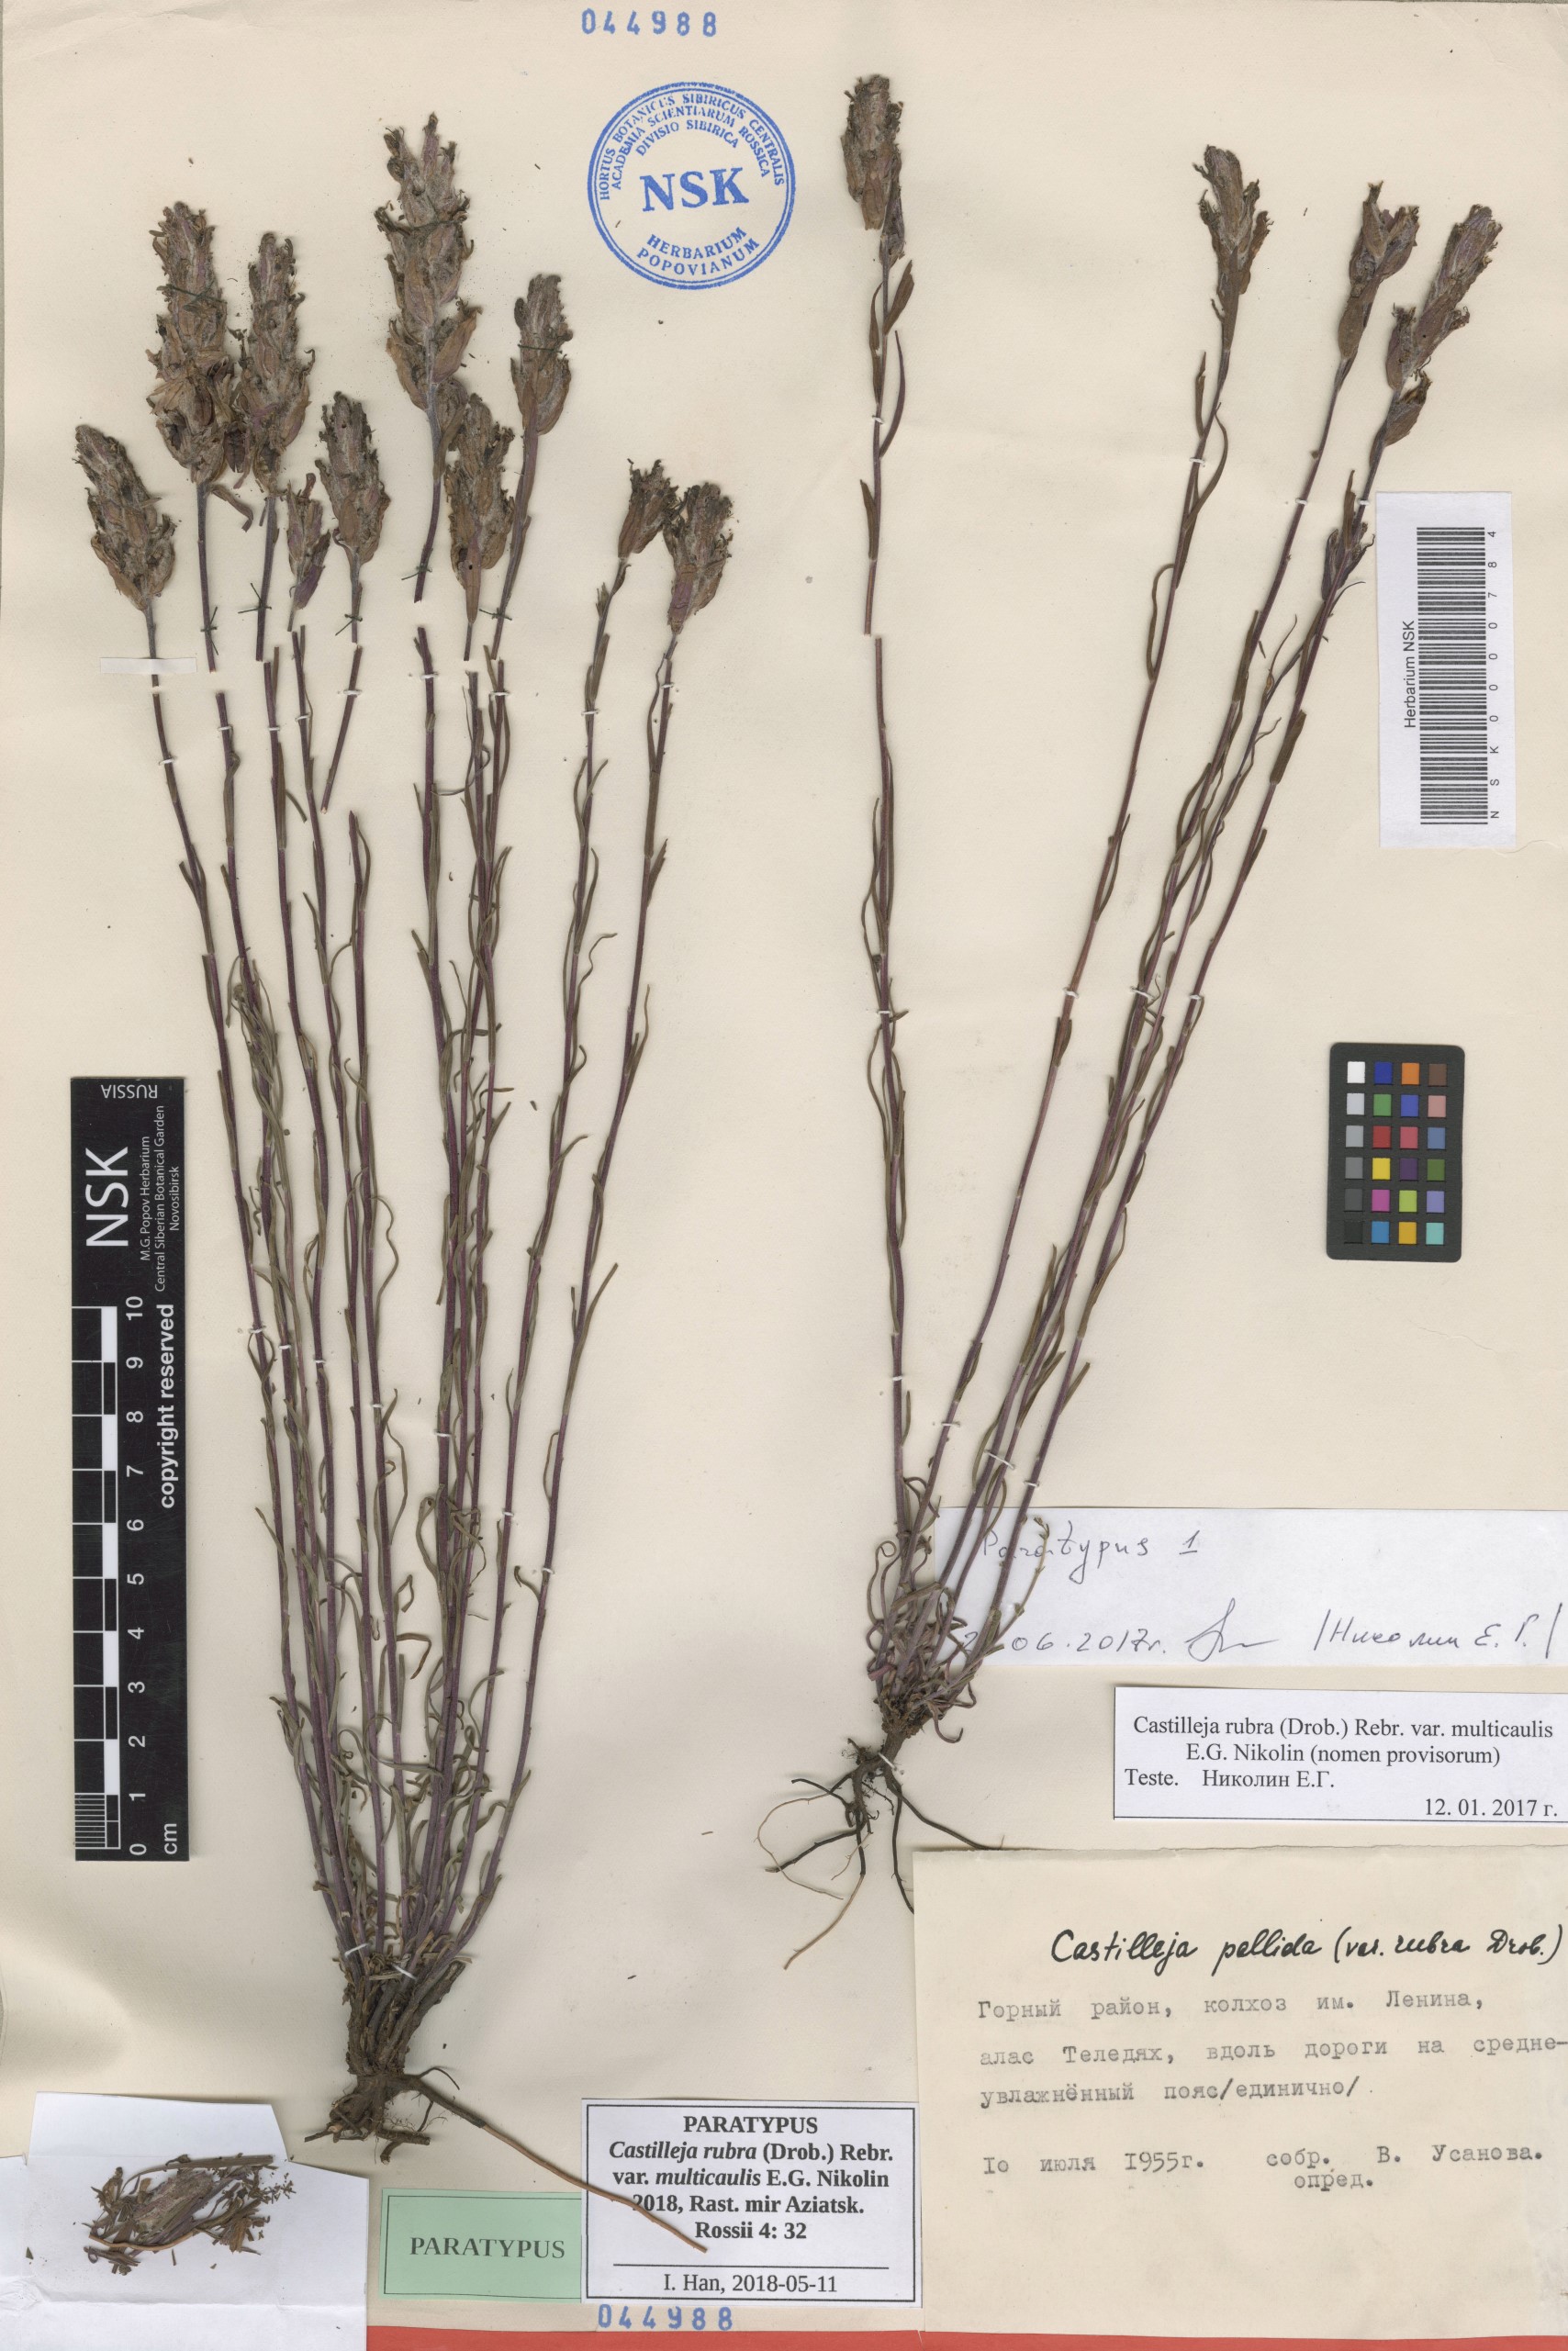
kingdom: Plantae
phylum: Tracheophyta
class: Magnoliopsida
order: Lamiales
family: Orobanchaceae
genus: Castilleja
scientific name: Castilleja rubra
